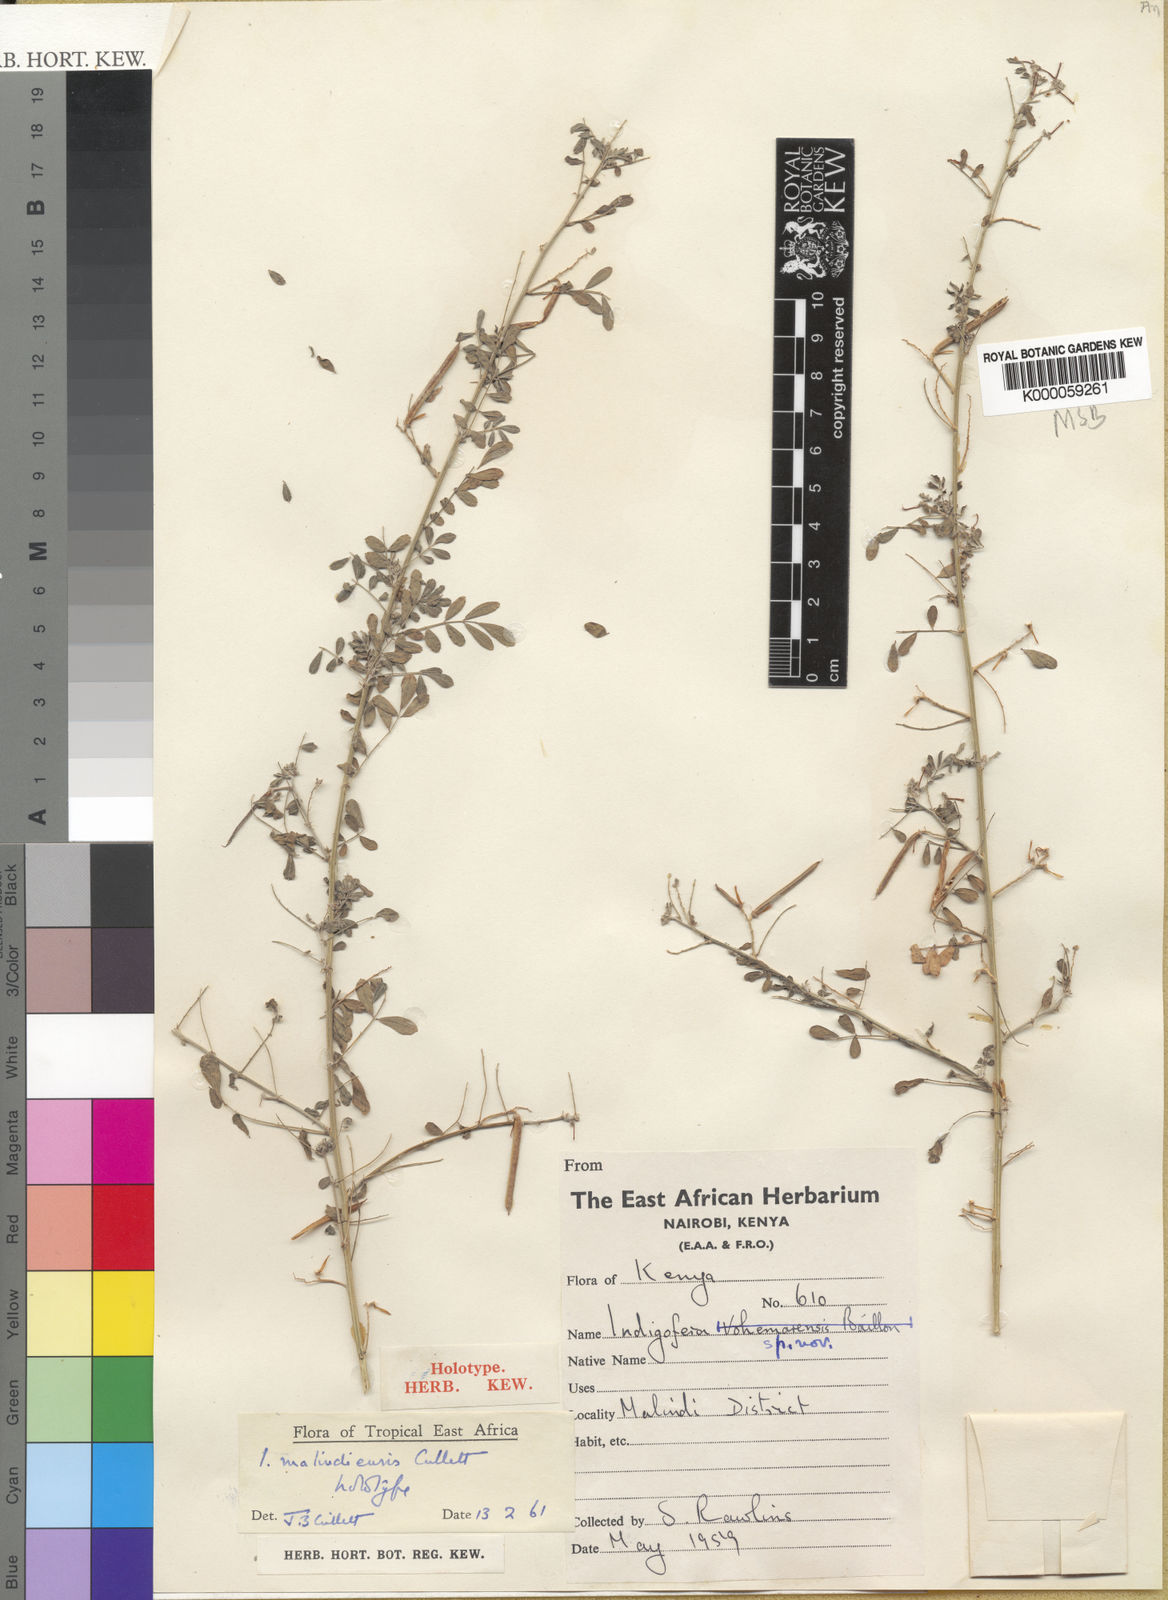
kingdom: Plantae
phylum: Tracheophyta
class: Magnoliopsida
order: Fabales
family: Fabaceae
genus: Indigofera
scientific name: Indigofera malindiensis
